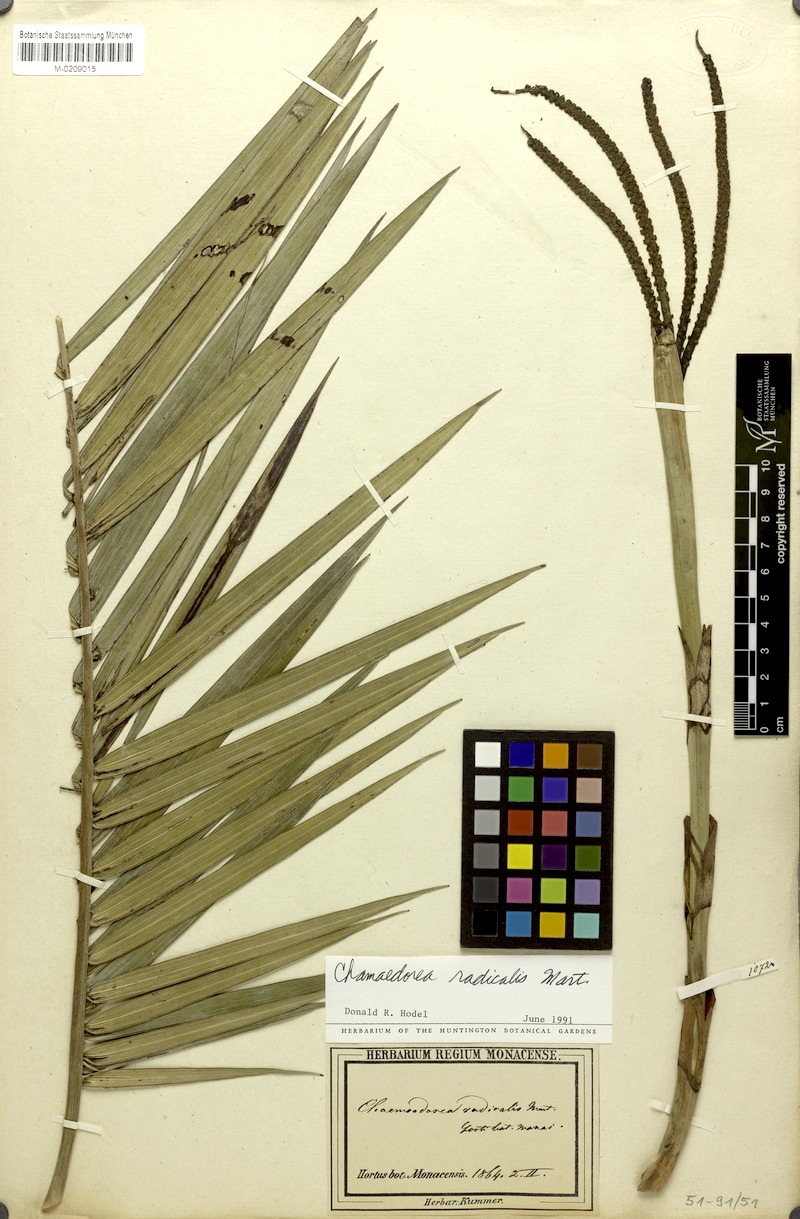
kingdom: Plantae
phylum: Tracheophyta
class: Liliopsida
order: Arecales
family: Arecaceae
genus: Chamaedorea
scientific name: Chamaedorea radicalis
